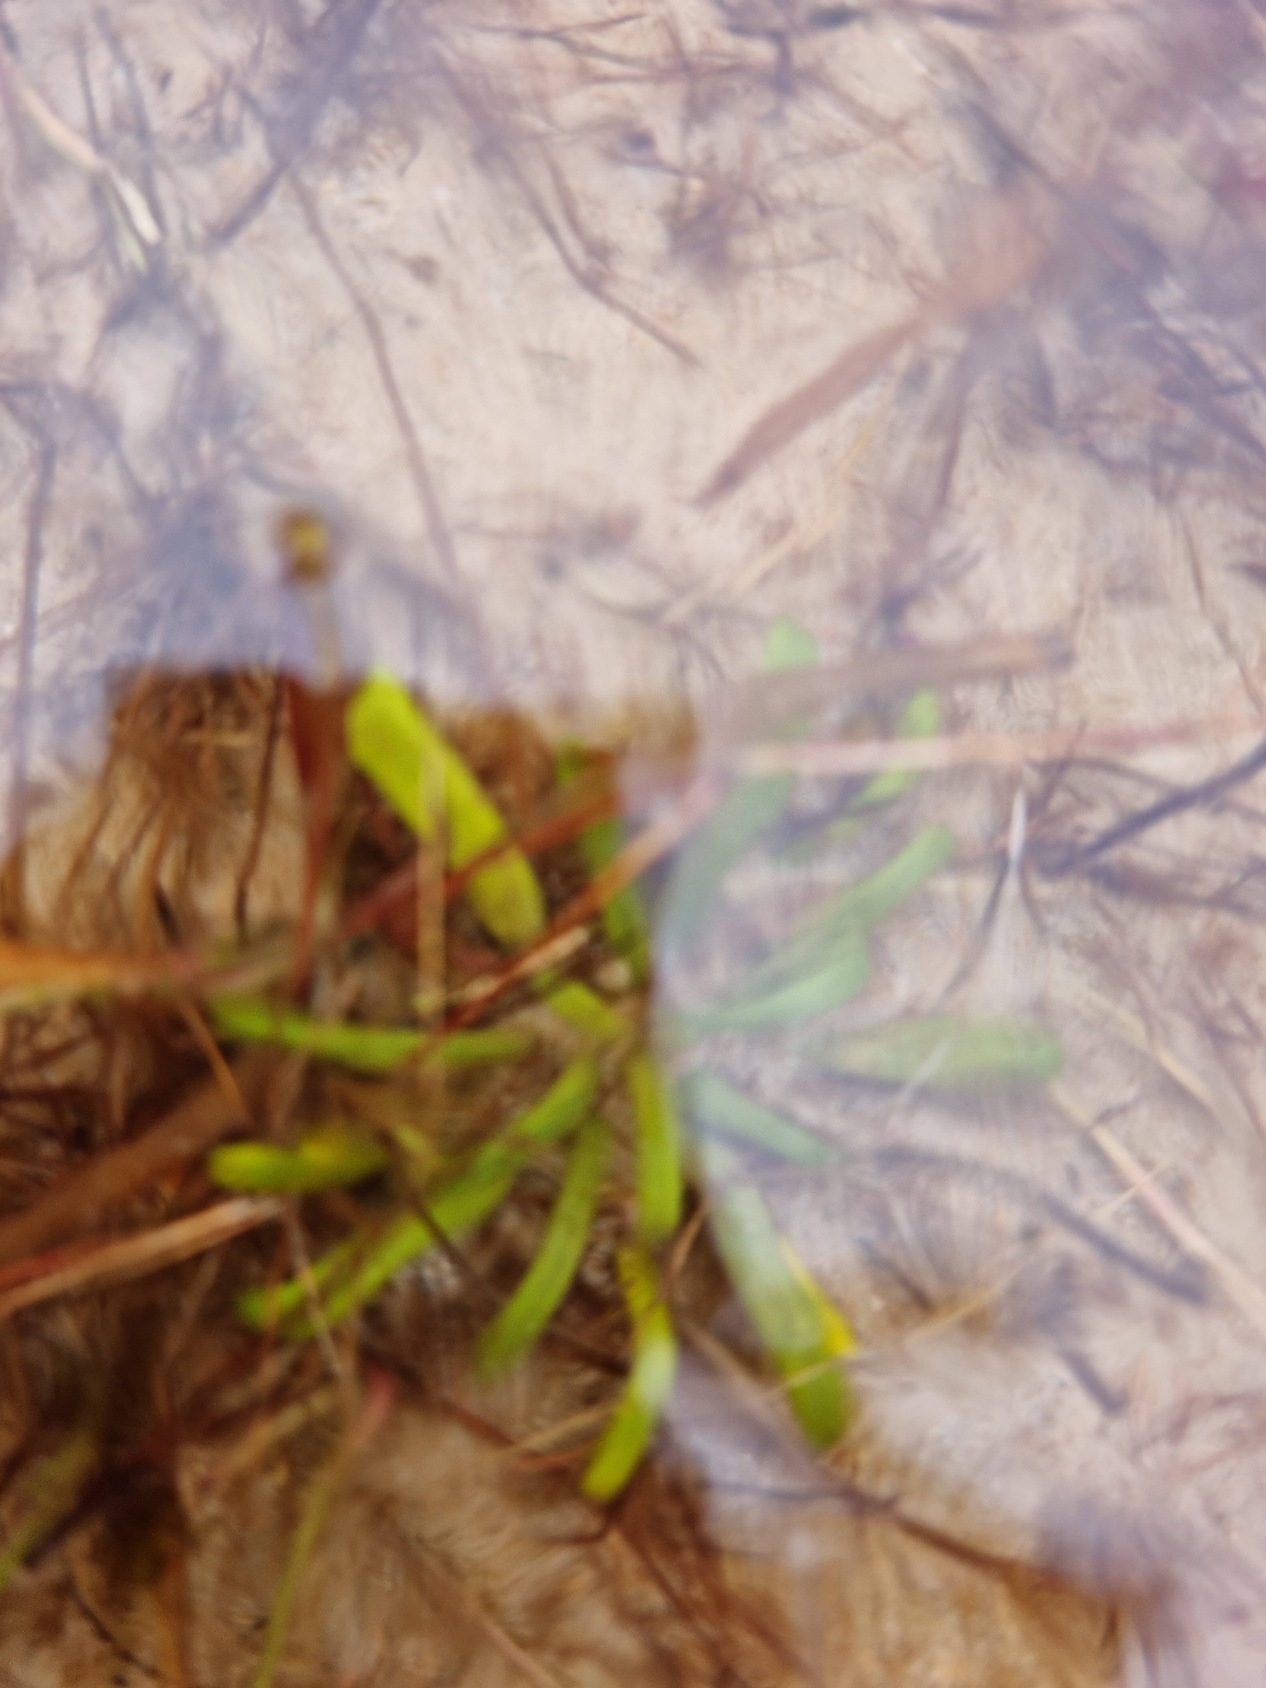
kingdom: Plantae
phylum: Tracheophyta
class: Magnoliopsida
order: Asterales
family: Campanulaceae
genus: Lobelia
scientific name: Lobelia dortmanna
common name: Tvepibet lobelie
